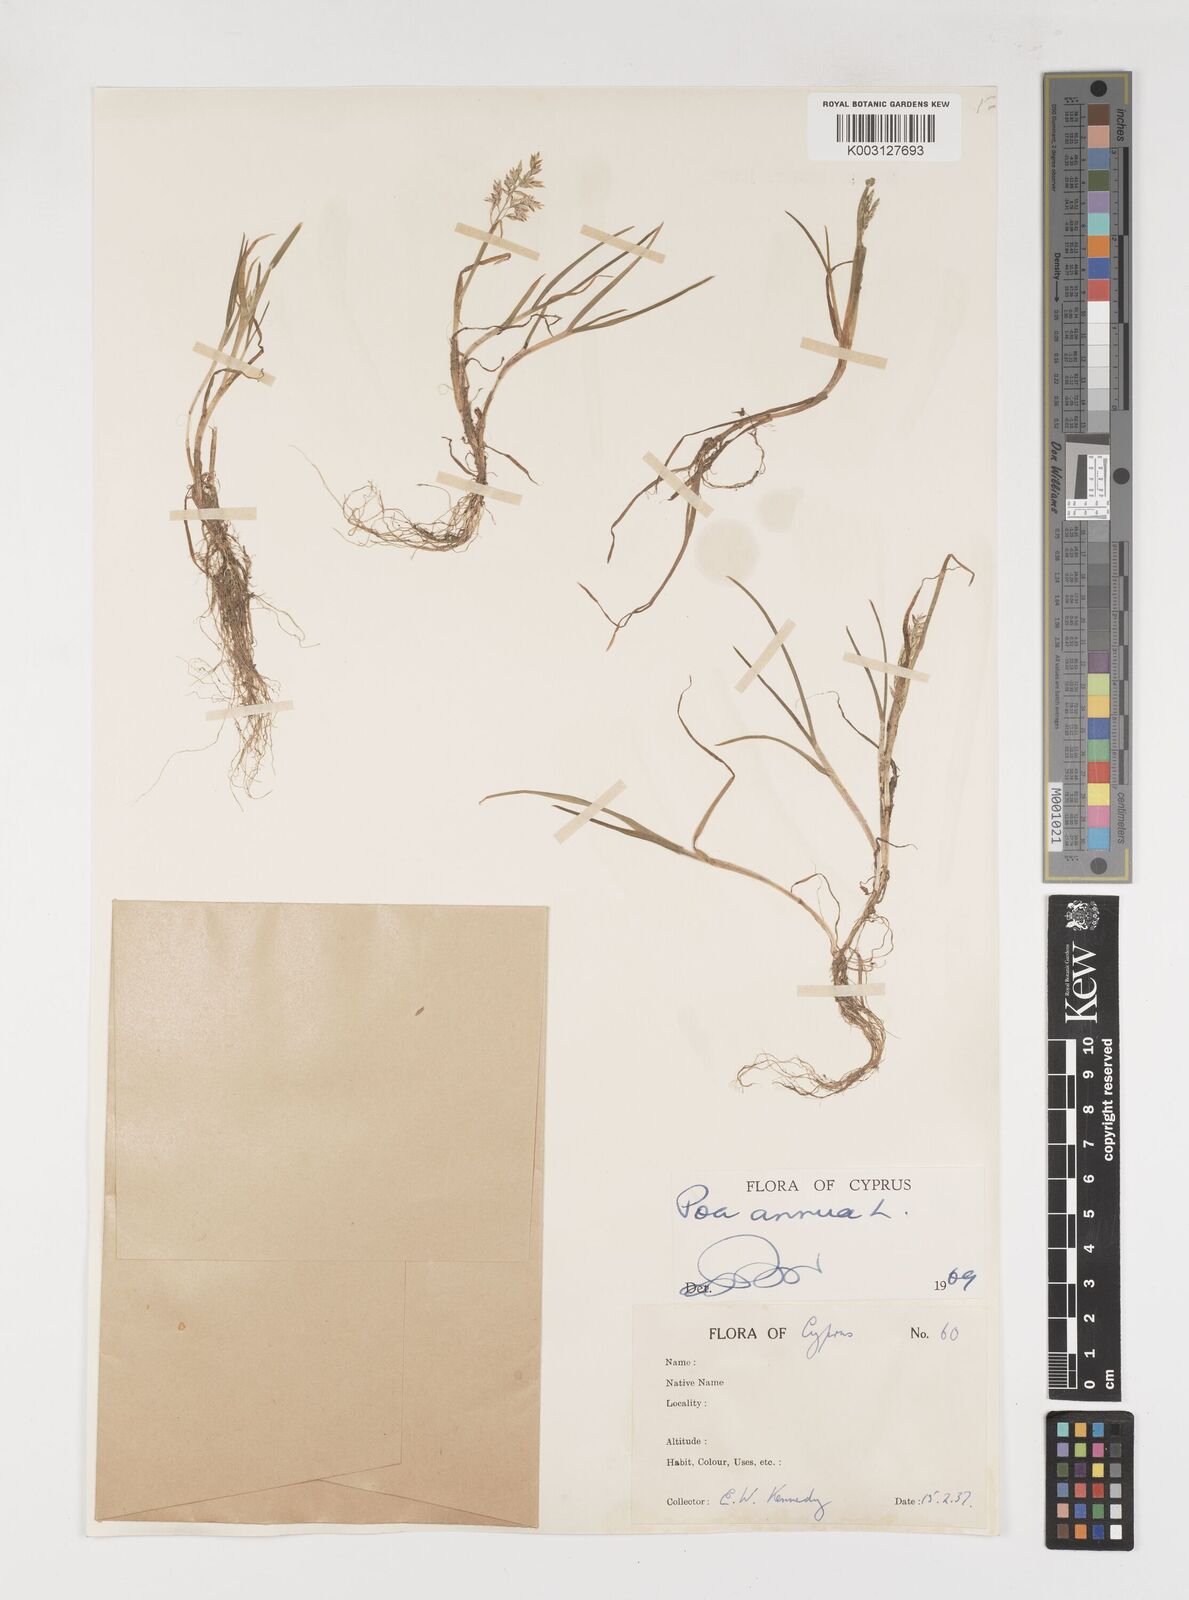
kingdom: Plantae
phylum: Tracheophyta
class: Liliopsida
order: Poales
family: Poaceae
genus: Poa
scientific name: Poa annua
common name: Annual bluegrass
